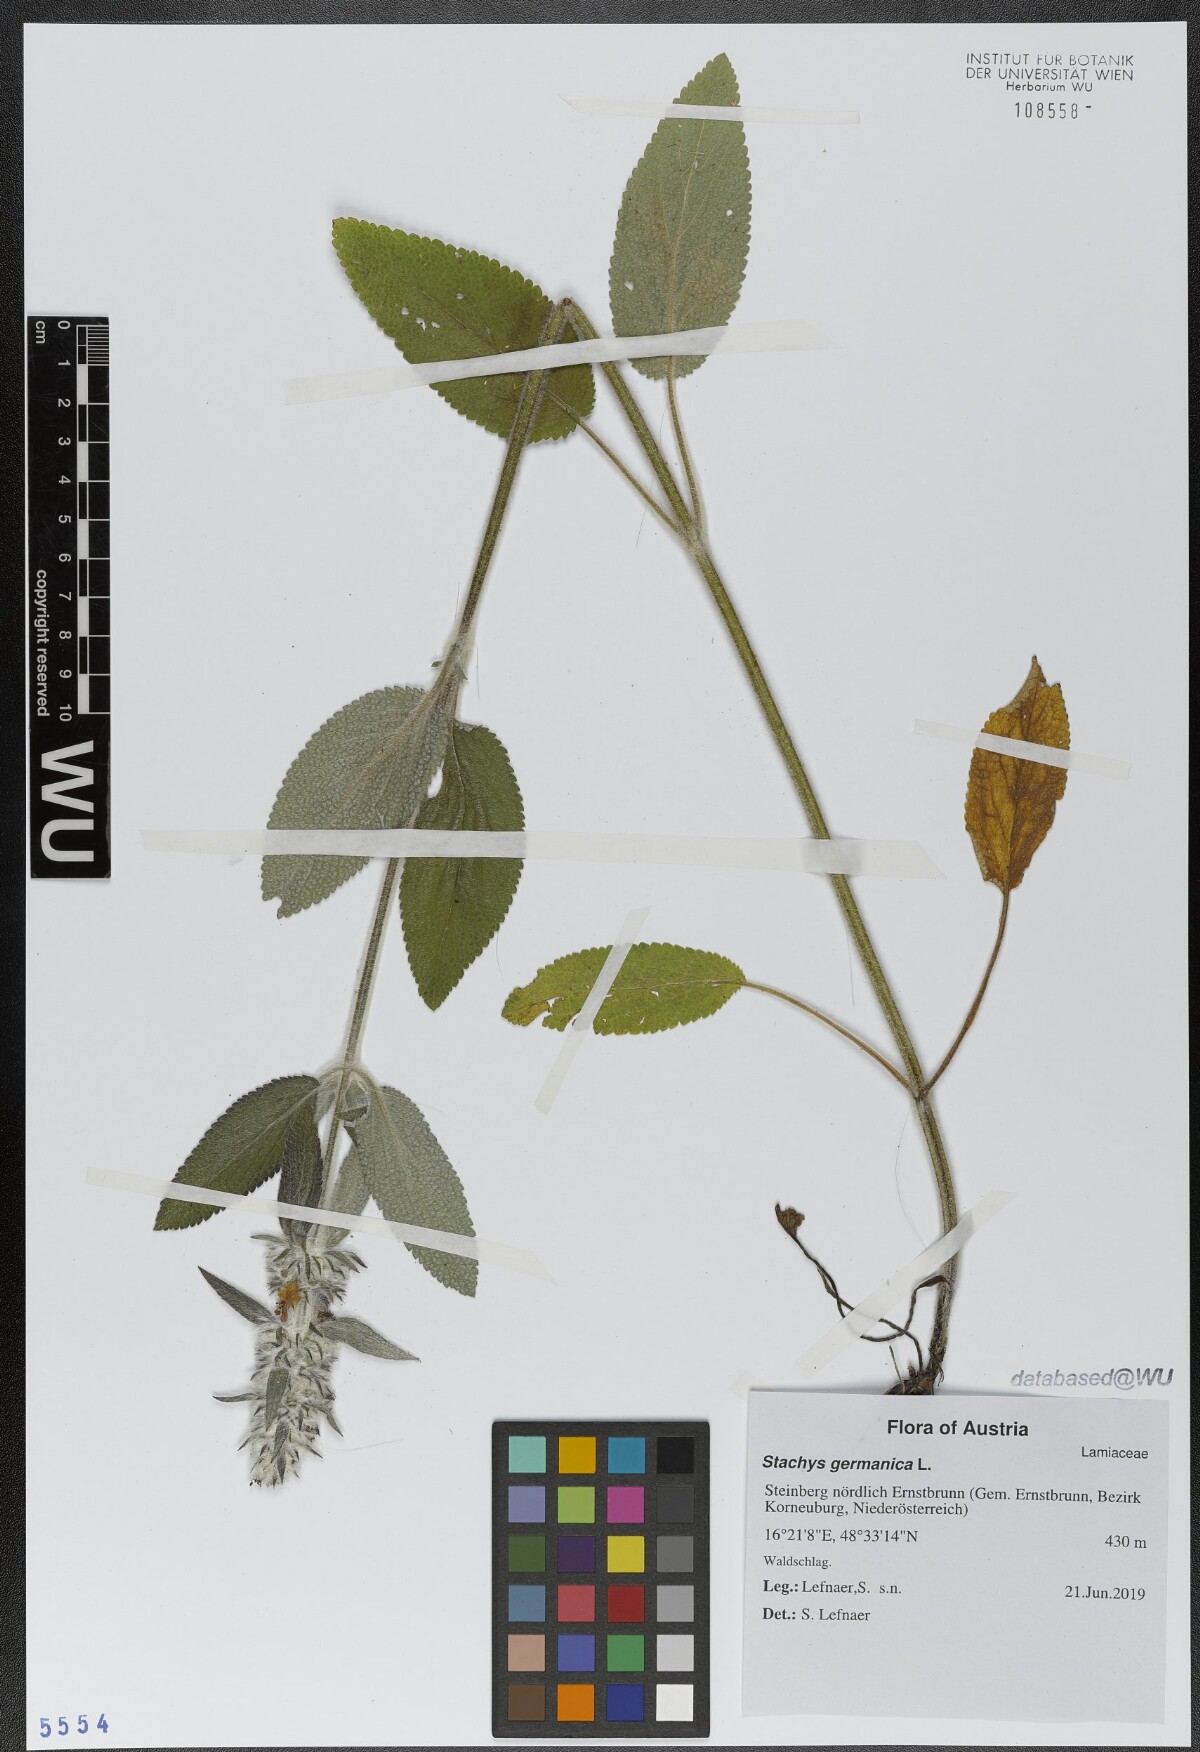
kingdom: Plantae
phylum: Tracheophyta
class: Magnoliopsida
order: Lamiales
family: Lamiaceae
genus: Stachys
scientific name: Stachys germanica
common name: Downy woundwort
